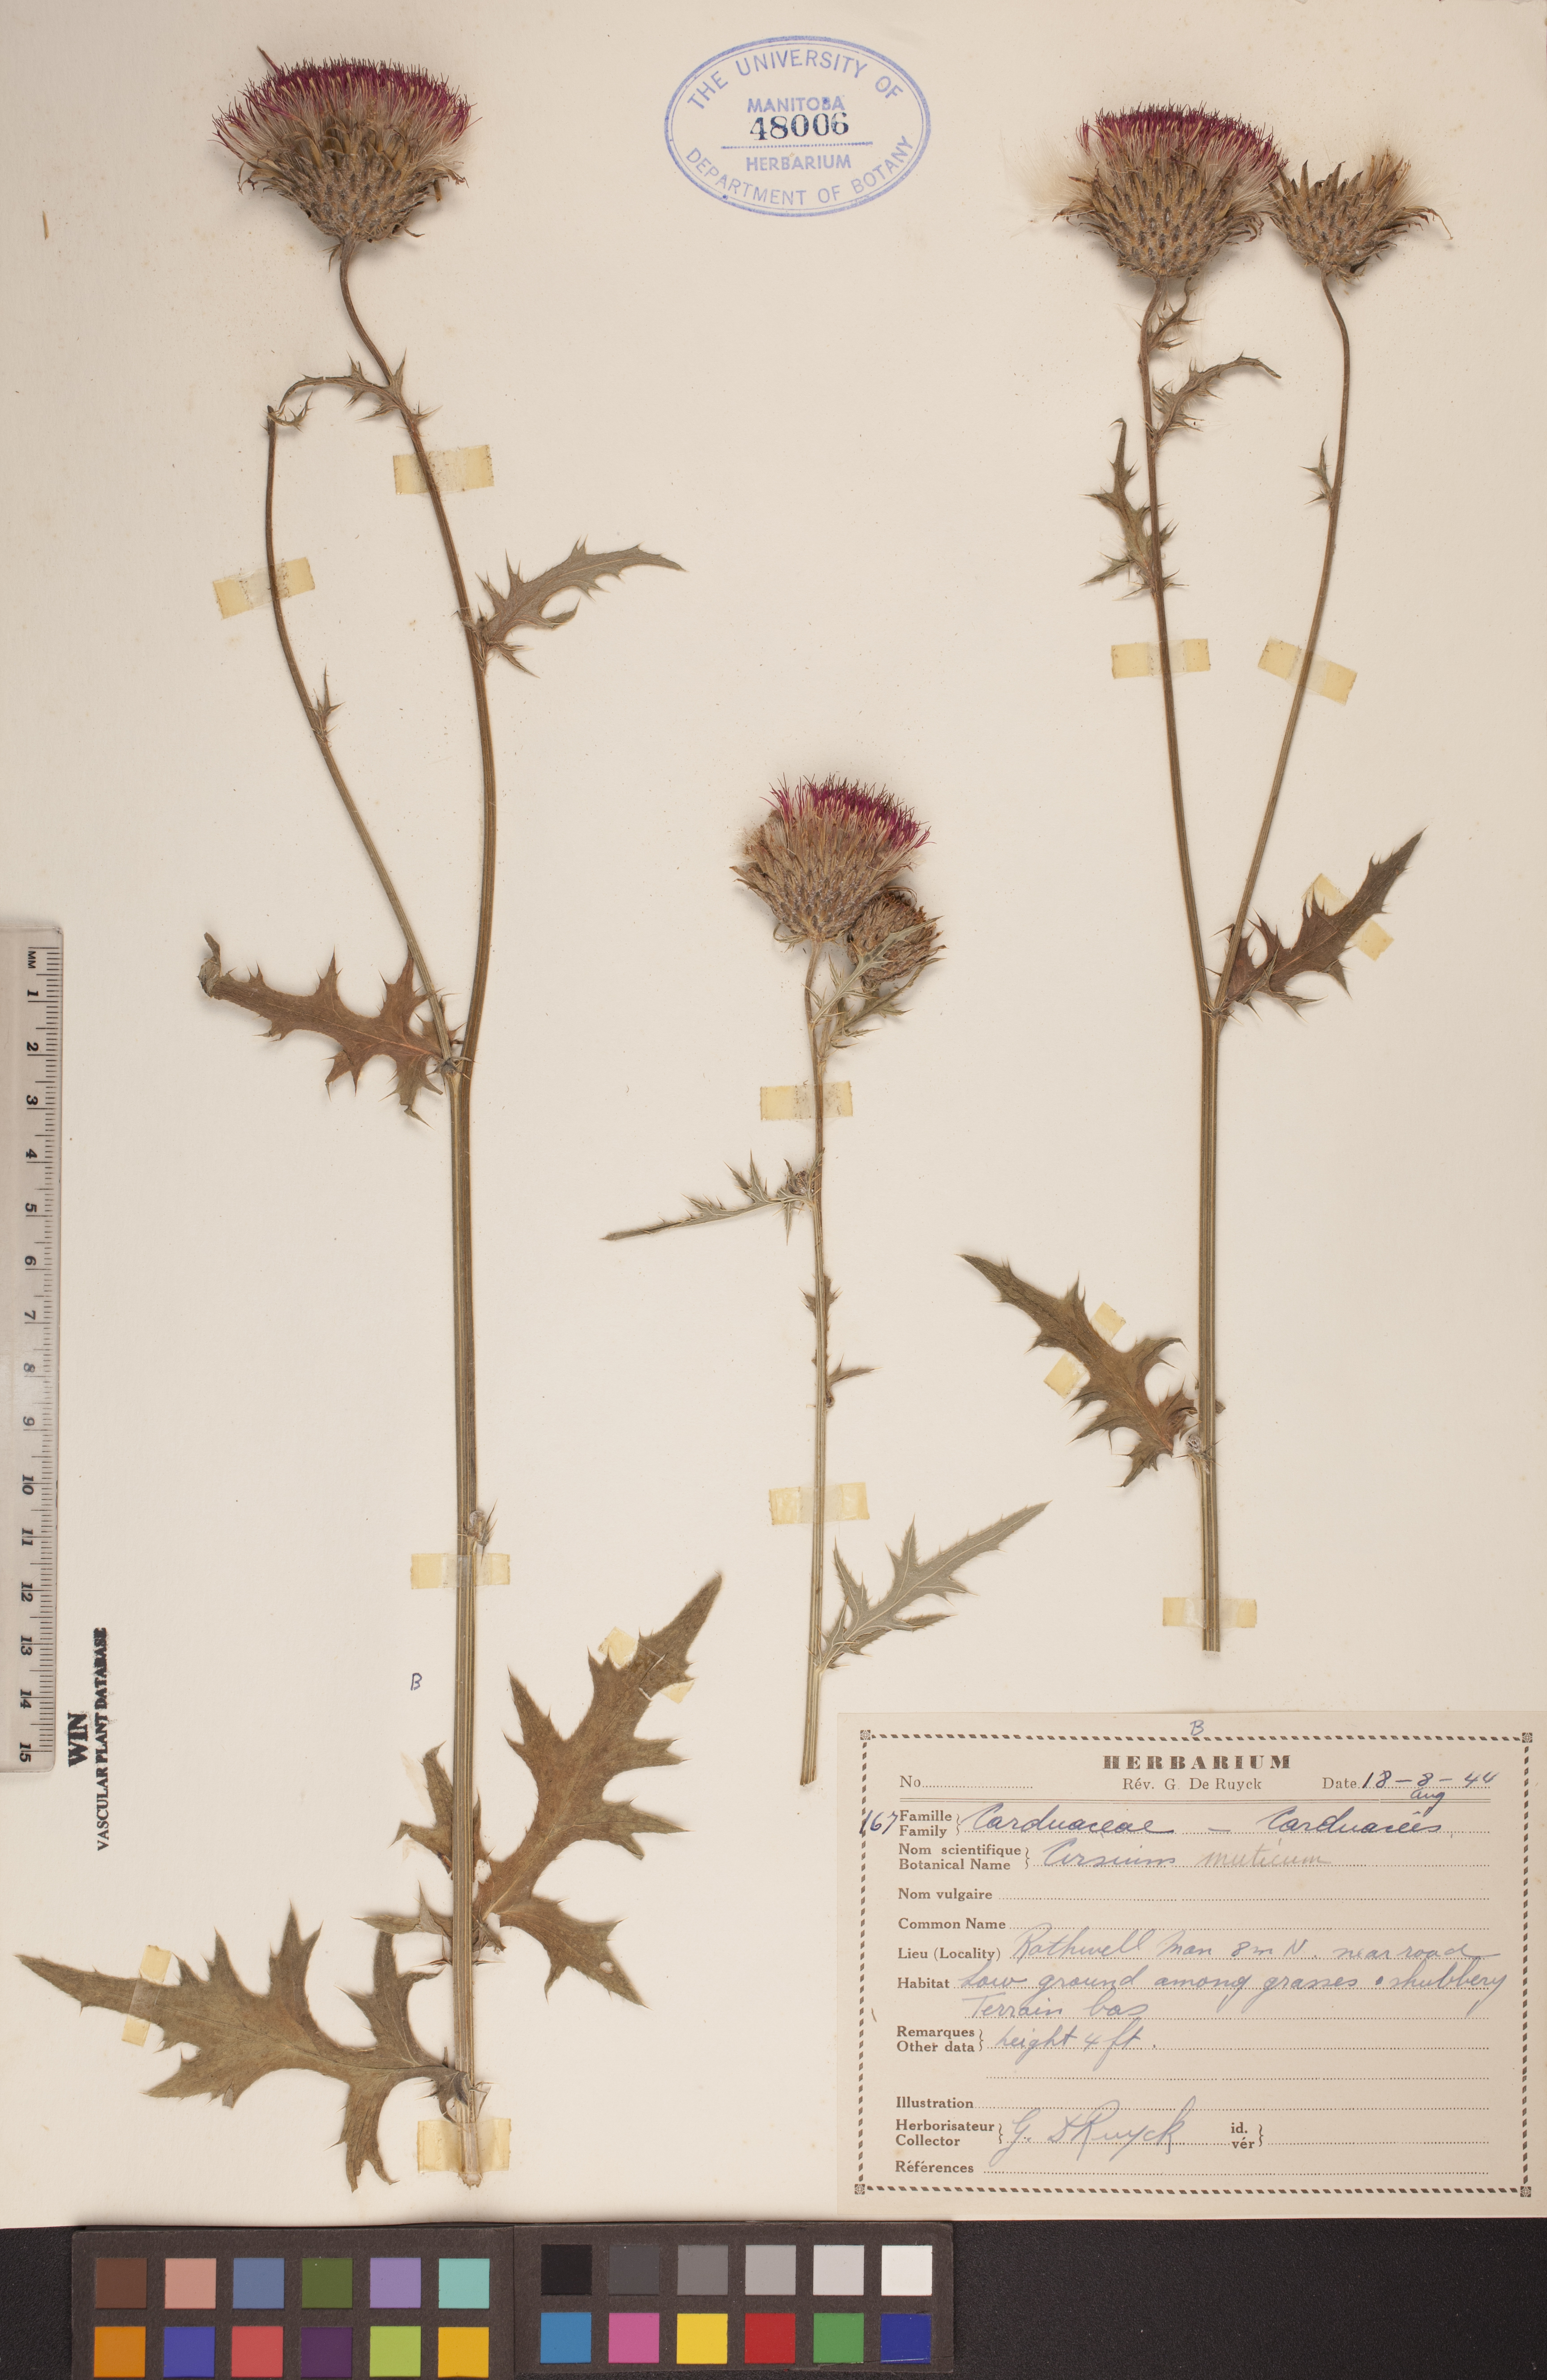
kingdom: Plantae
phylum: Tracheophyta
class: Magnoliopsida
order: Asterales
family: Asteraceae
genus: Cirsium
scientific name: Cirsium muticum
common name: Dunce-nettle
